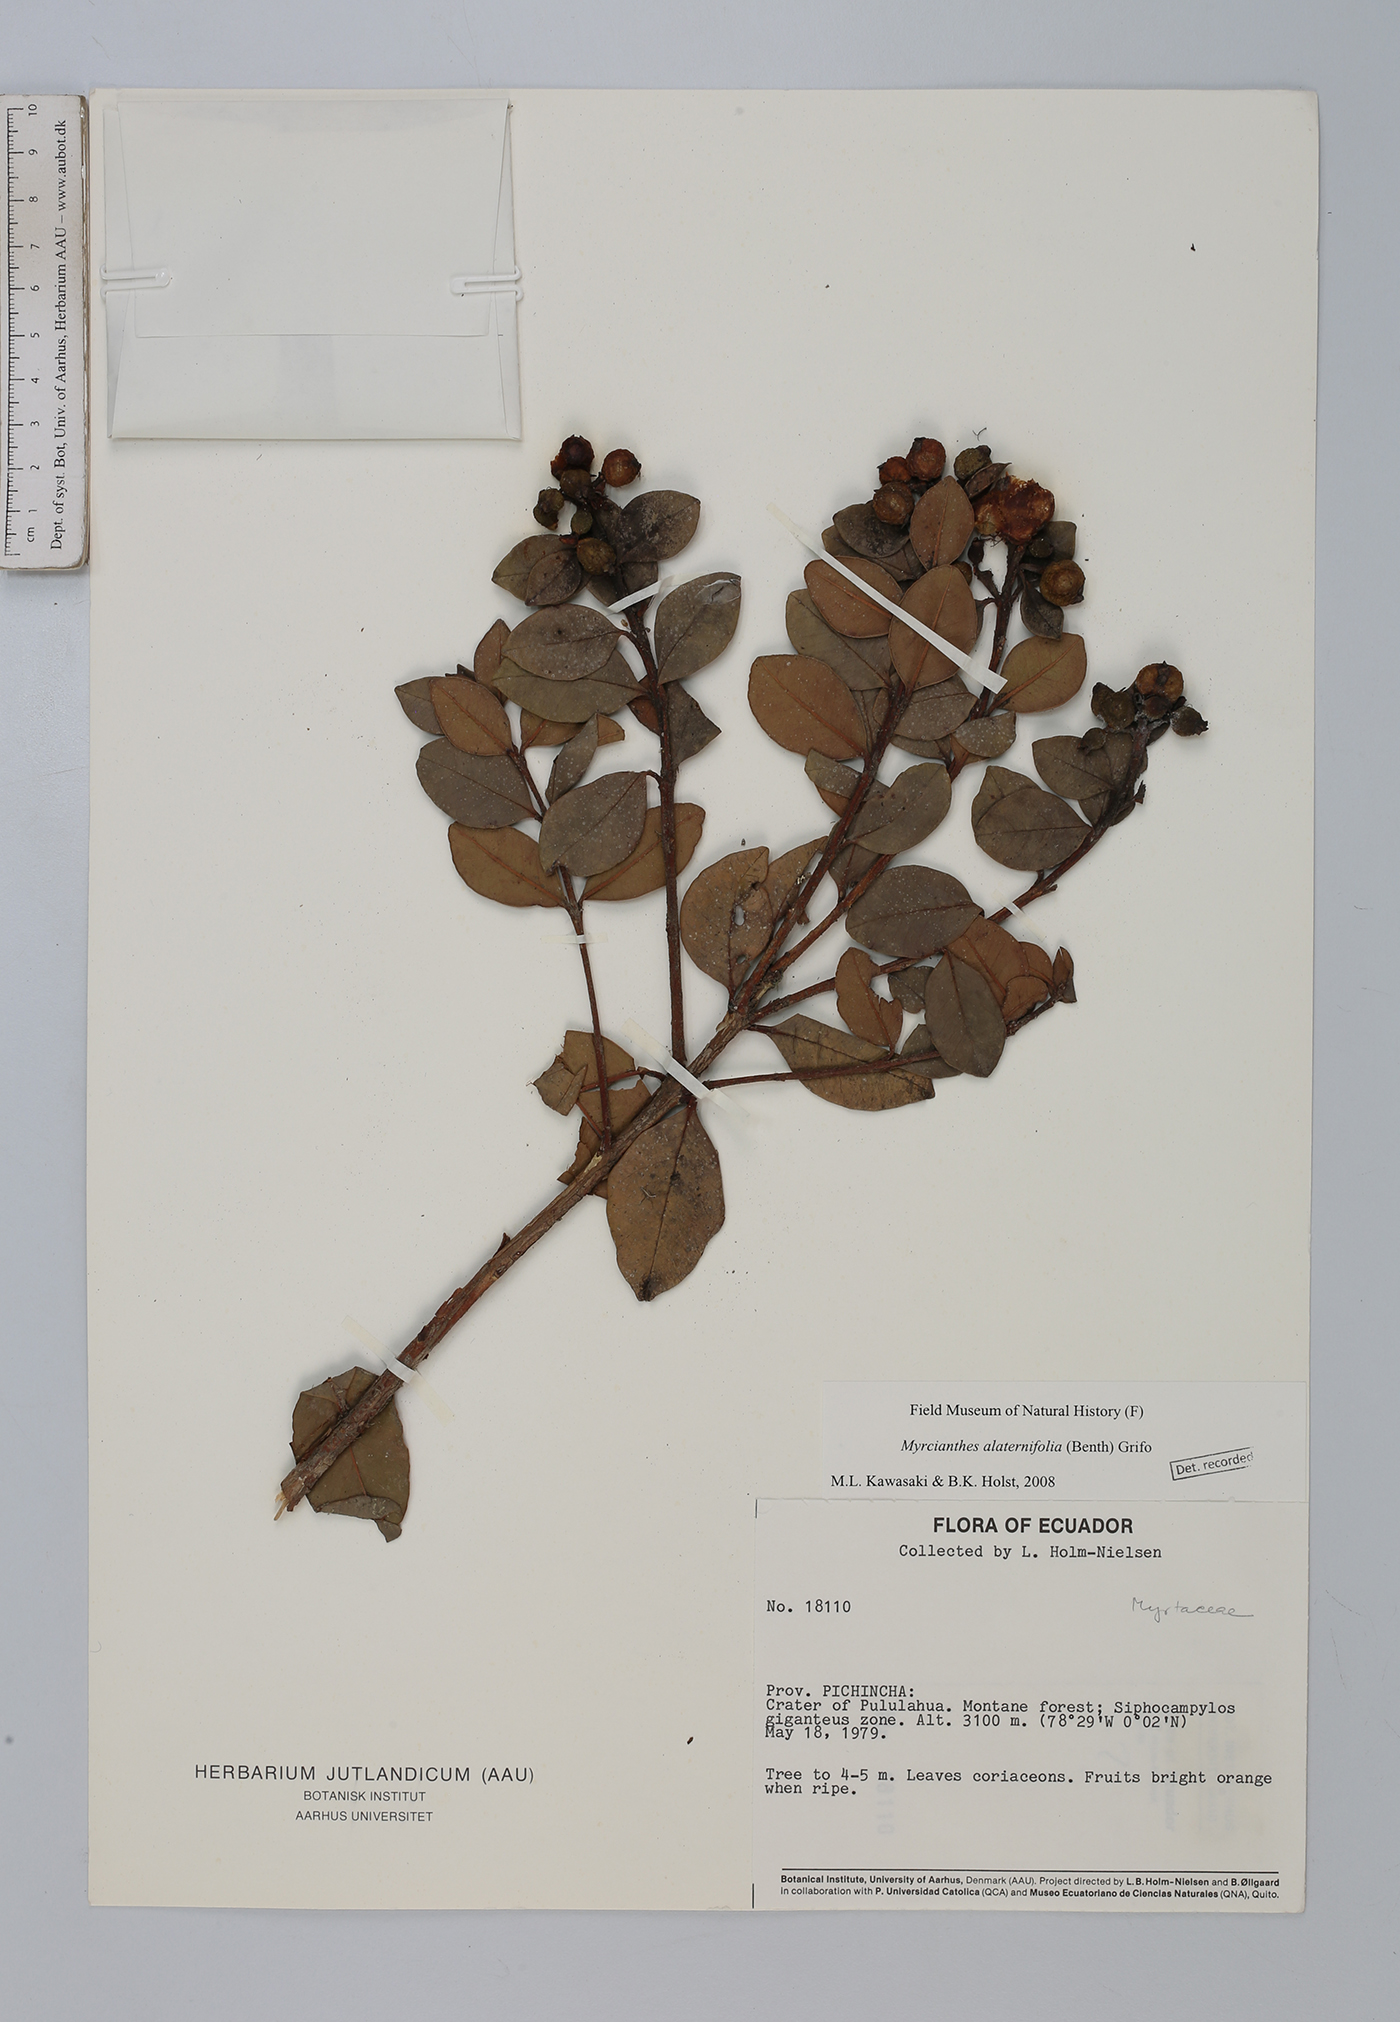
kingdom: Plantae
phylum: Tracheophyta
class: Magnoliopsida
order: Myrtales
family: Myrtaceae
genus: Myrcianthes
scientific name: Myrcianthes alaternifolia
